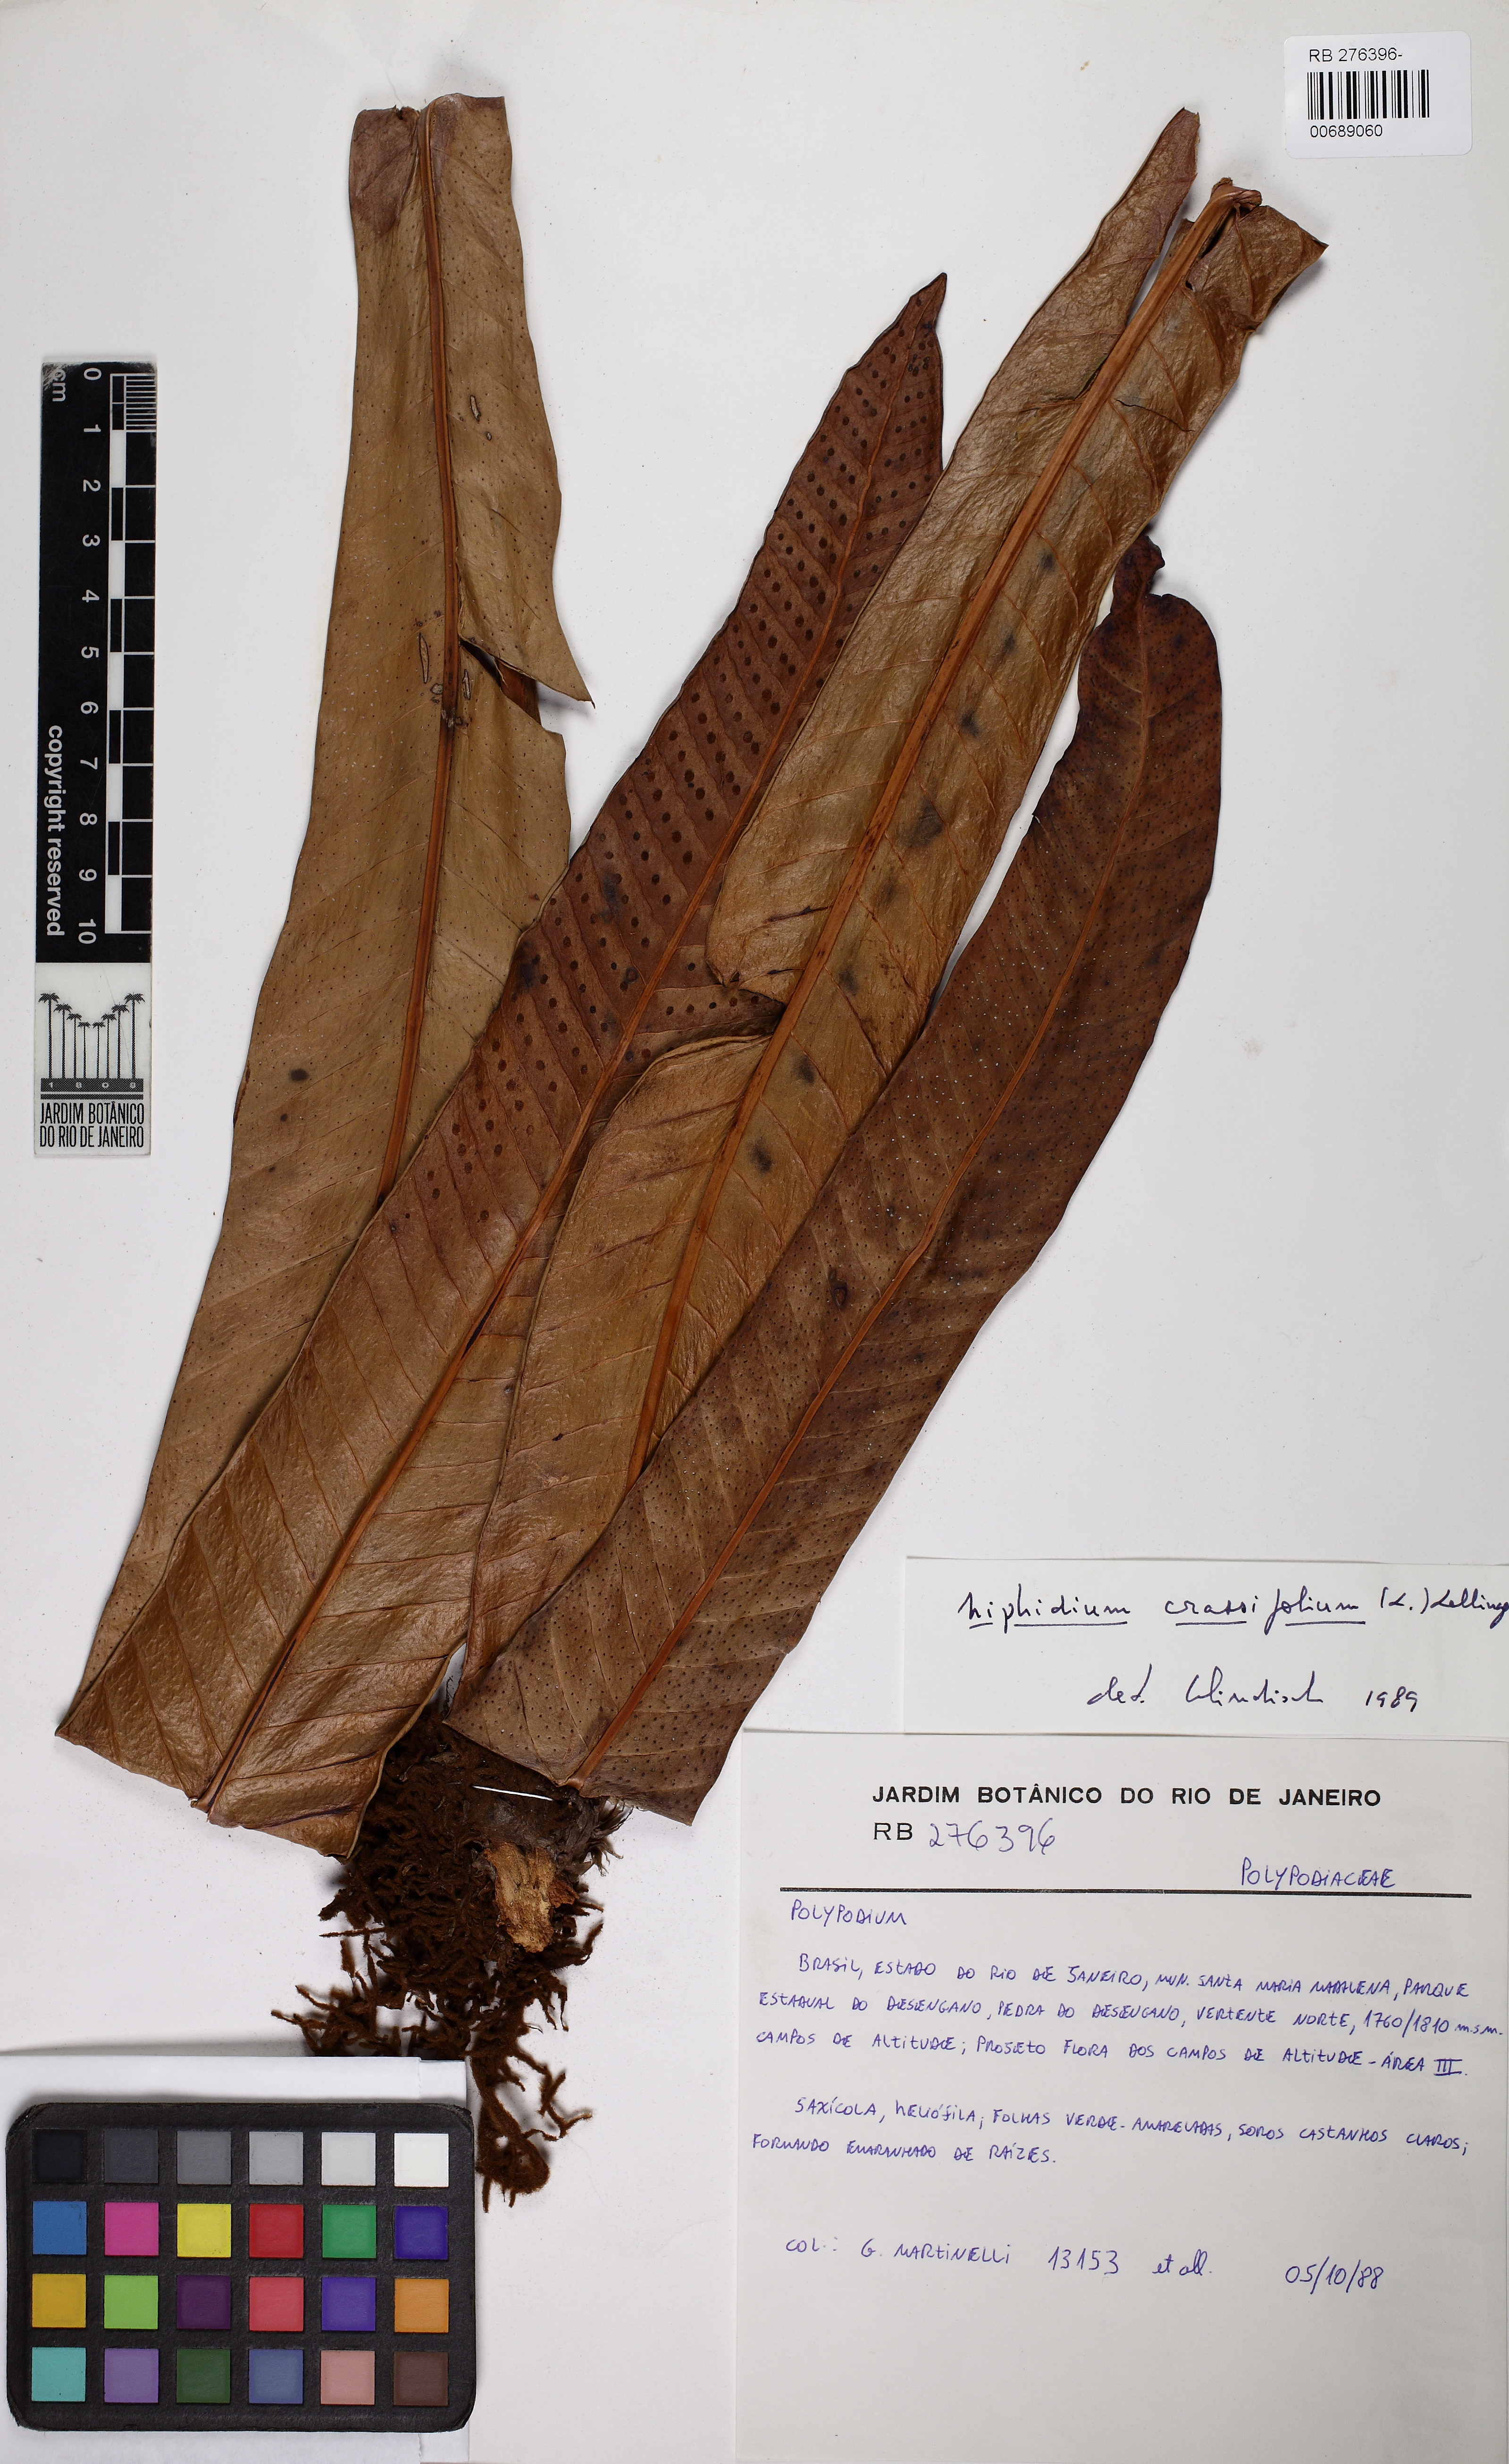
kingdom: Plantae
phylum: Tracheophyta
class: Polypodiopsida
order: Polypodiales
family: Polypodiaceae
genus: Niphidium
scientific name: Niphidium crassifolium
